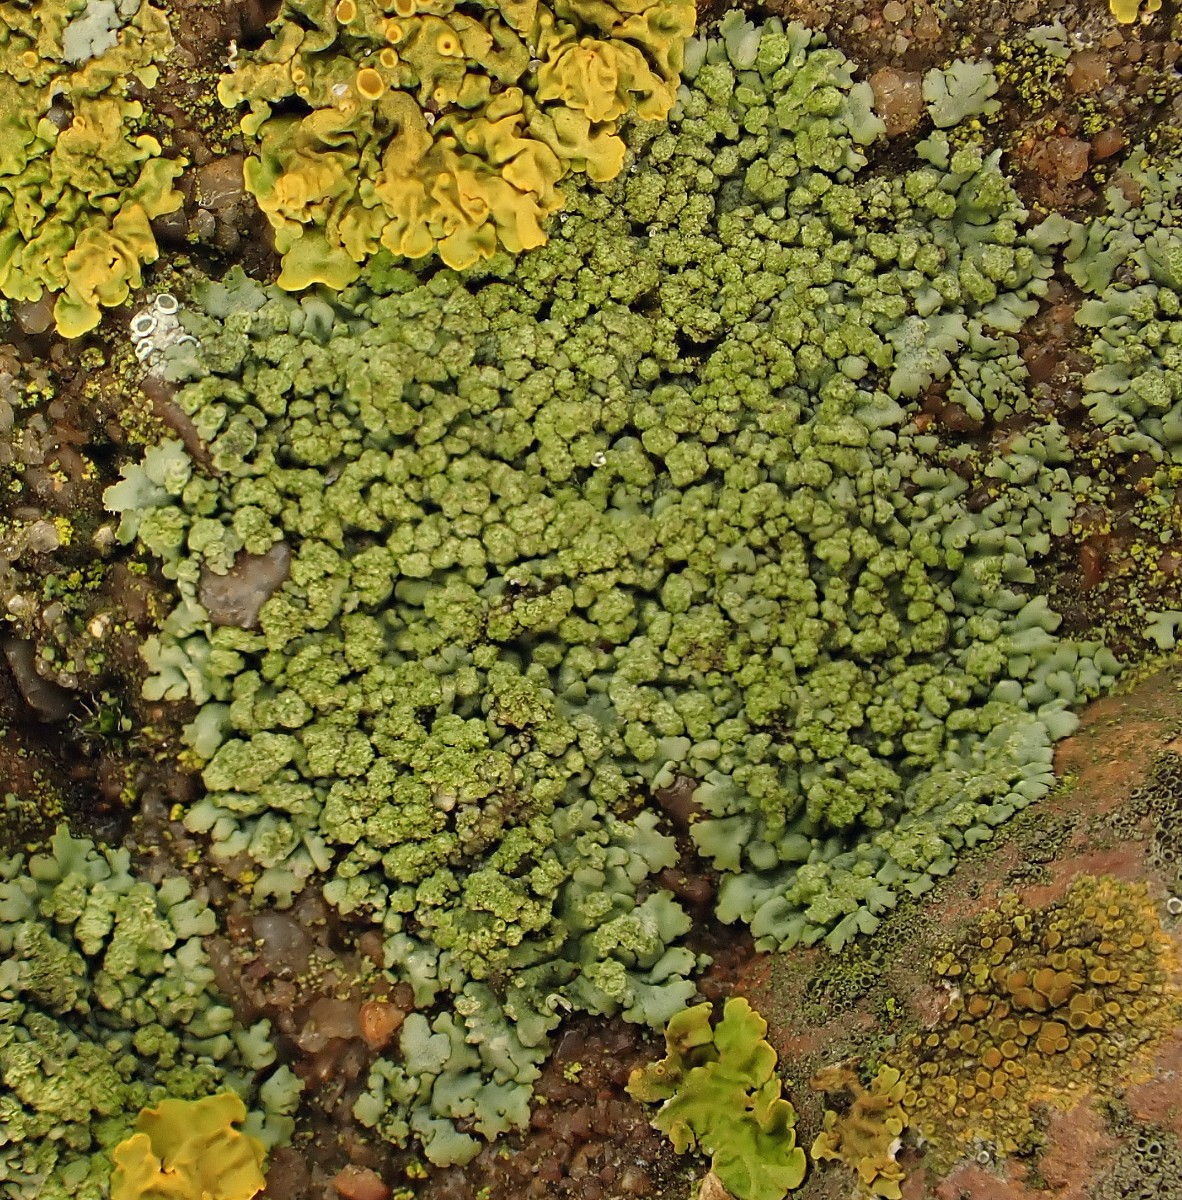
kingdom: Fungi
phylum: Ascomycota
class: Lecanoromycetes
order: Caliciales
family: Physciaceae
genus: Physcia
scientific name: Physcia caesia
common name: blågrå rosetlav
